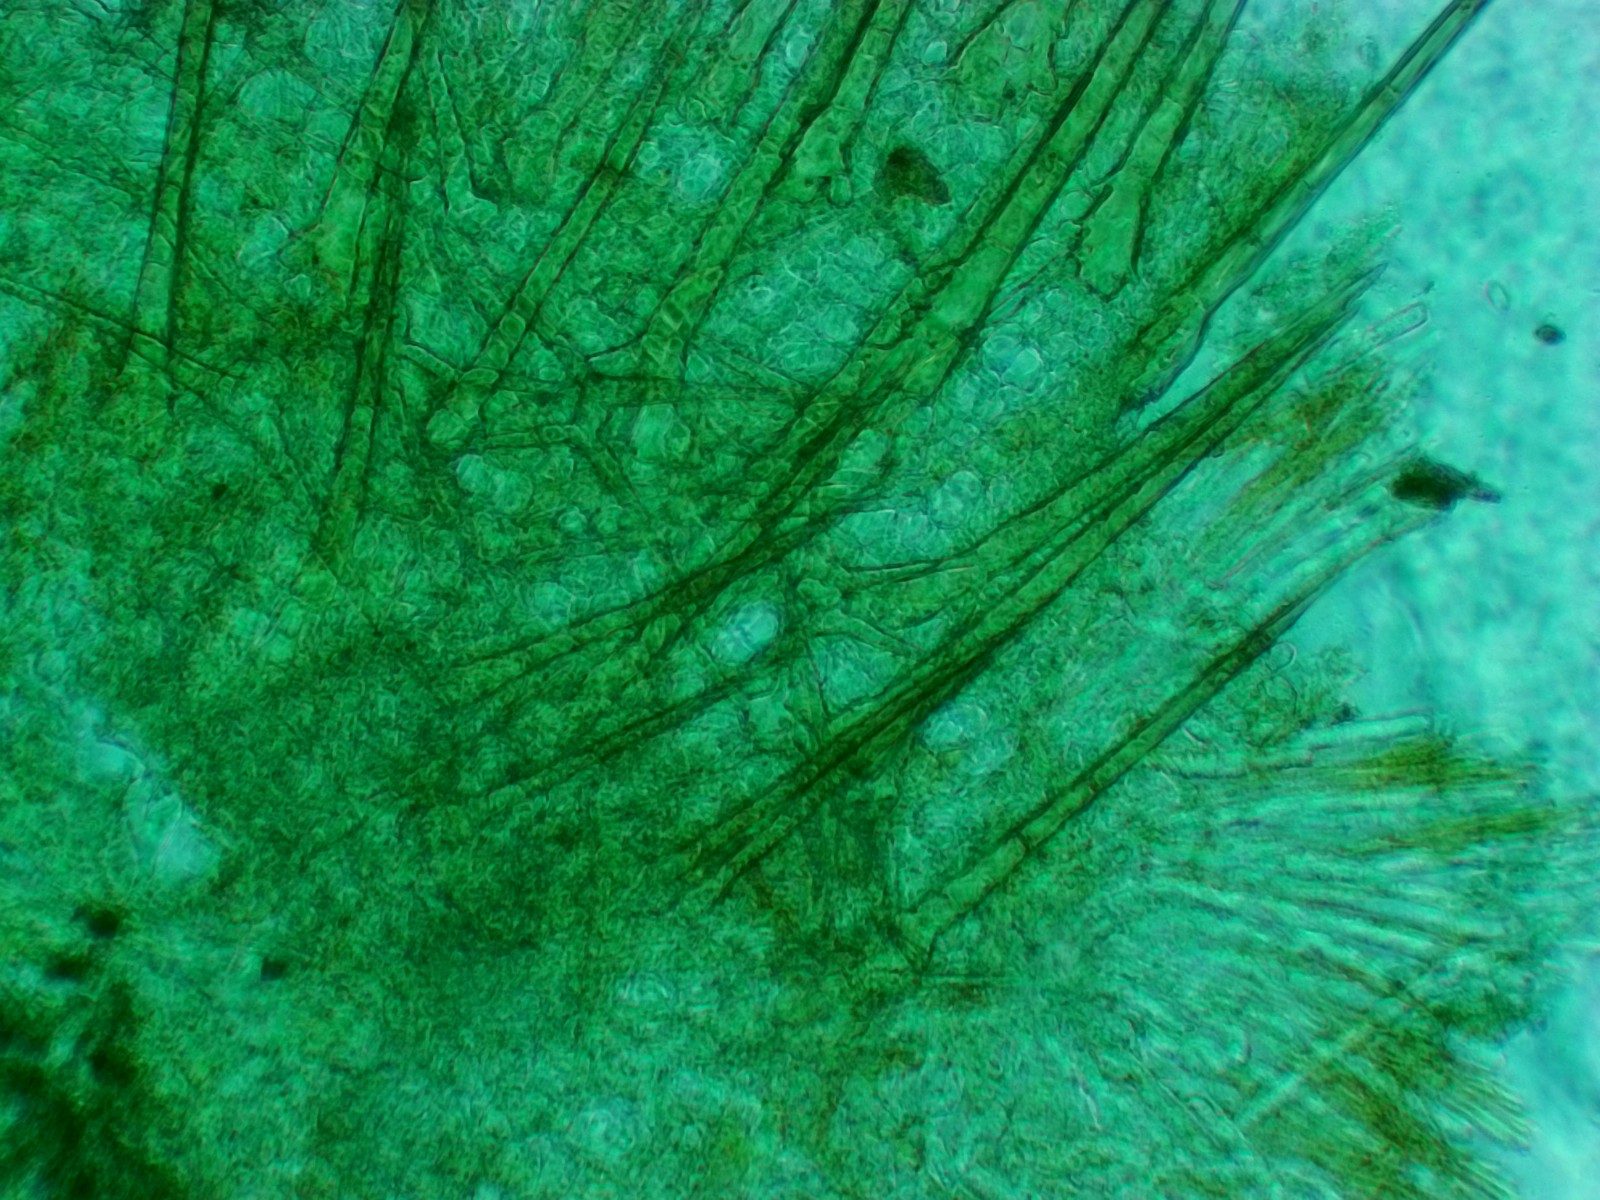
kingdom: Fungi
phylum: Ascomycota
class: Pezizomycetes
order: Pezizales
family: Pyronemataceae
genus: Cheilymenia
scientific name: Cheilymenia stercorea
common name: gødnings-hårbæger
